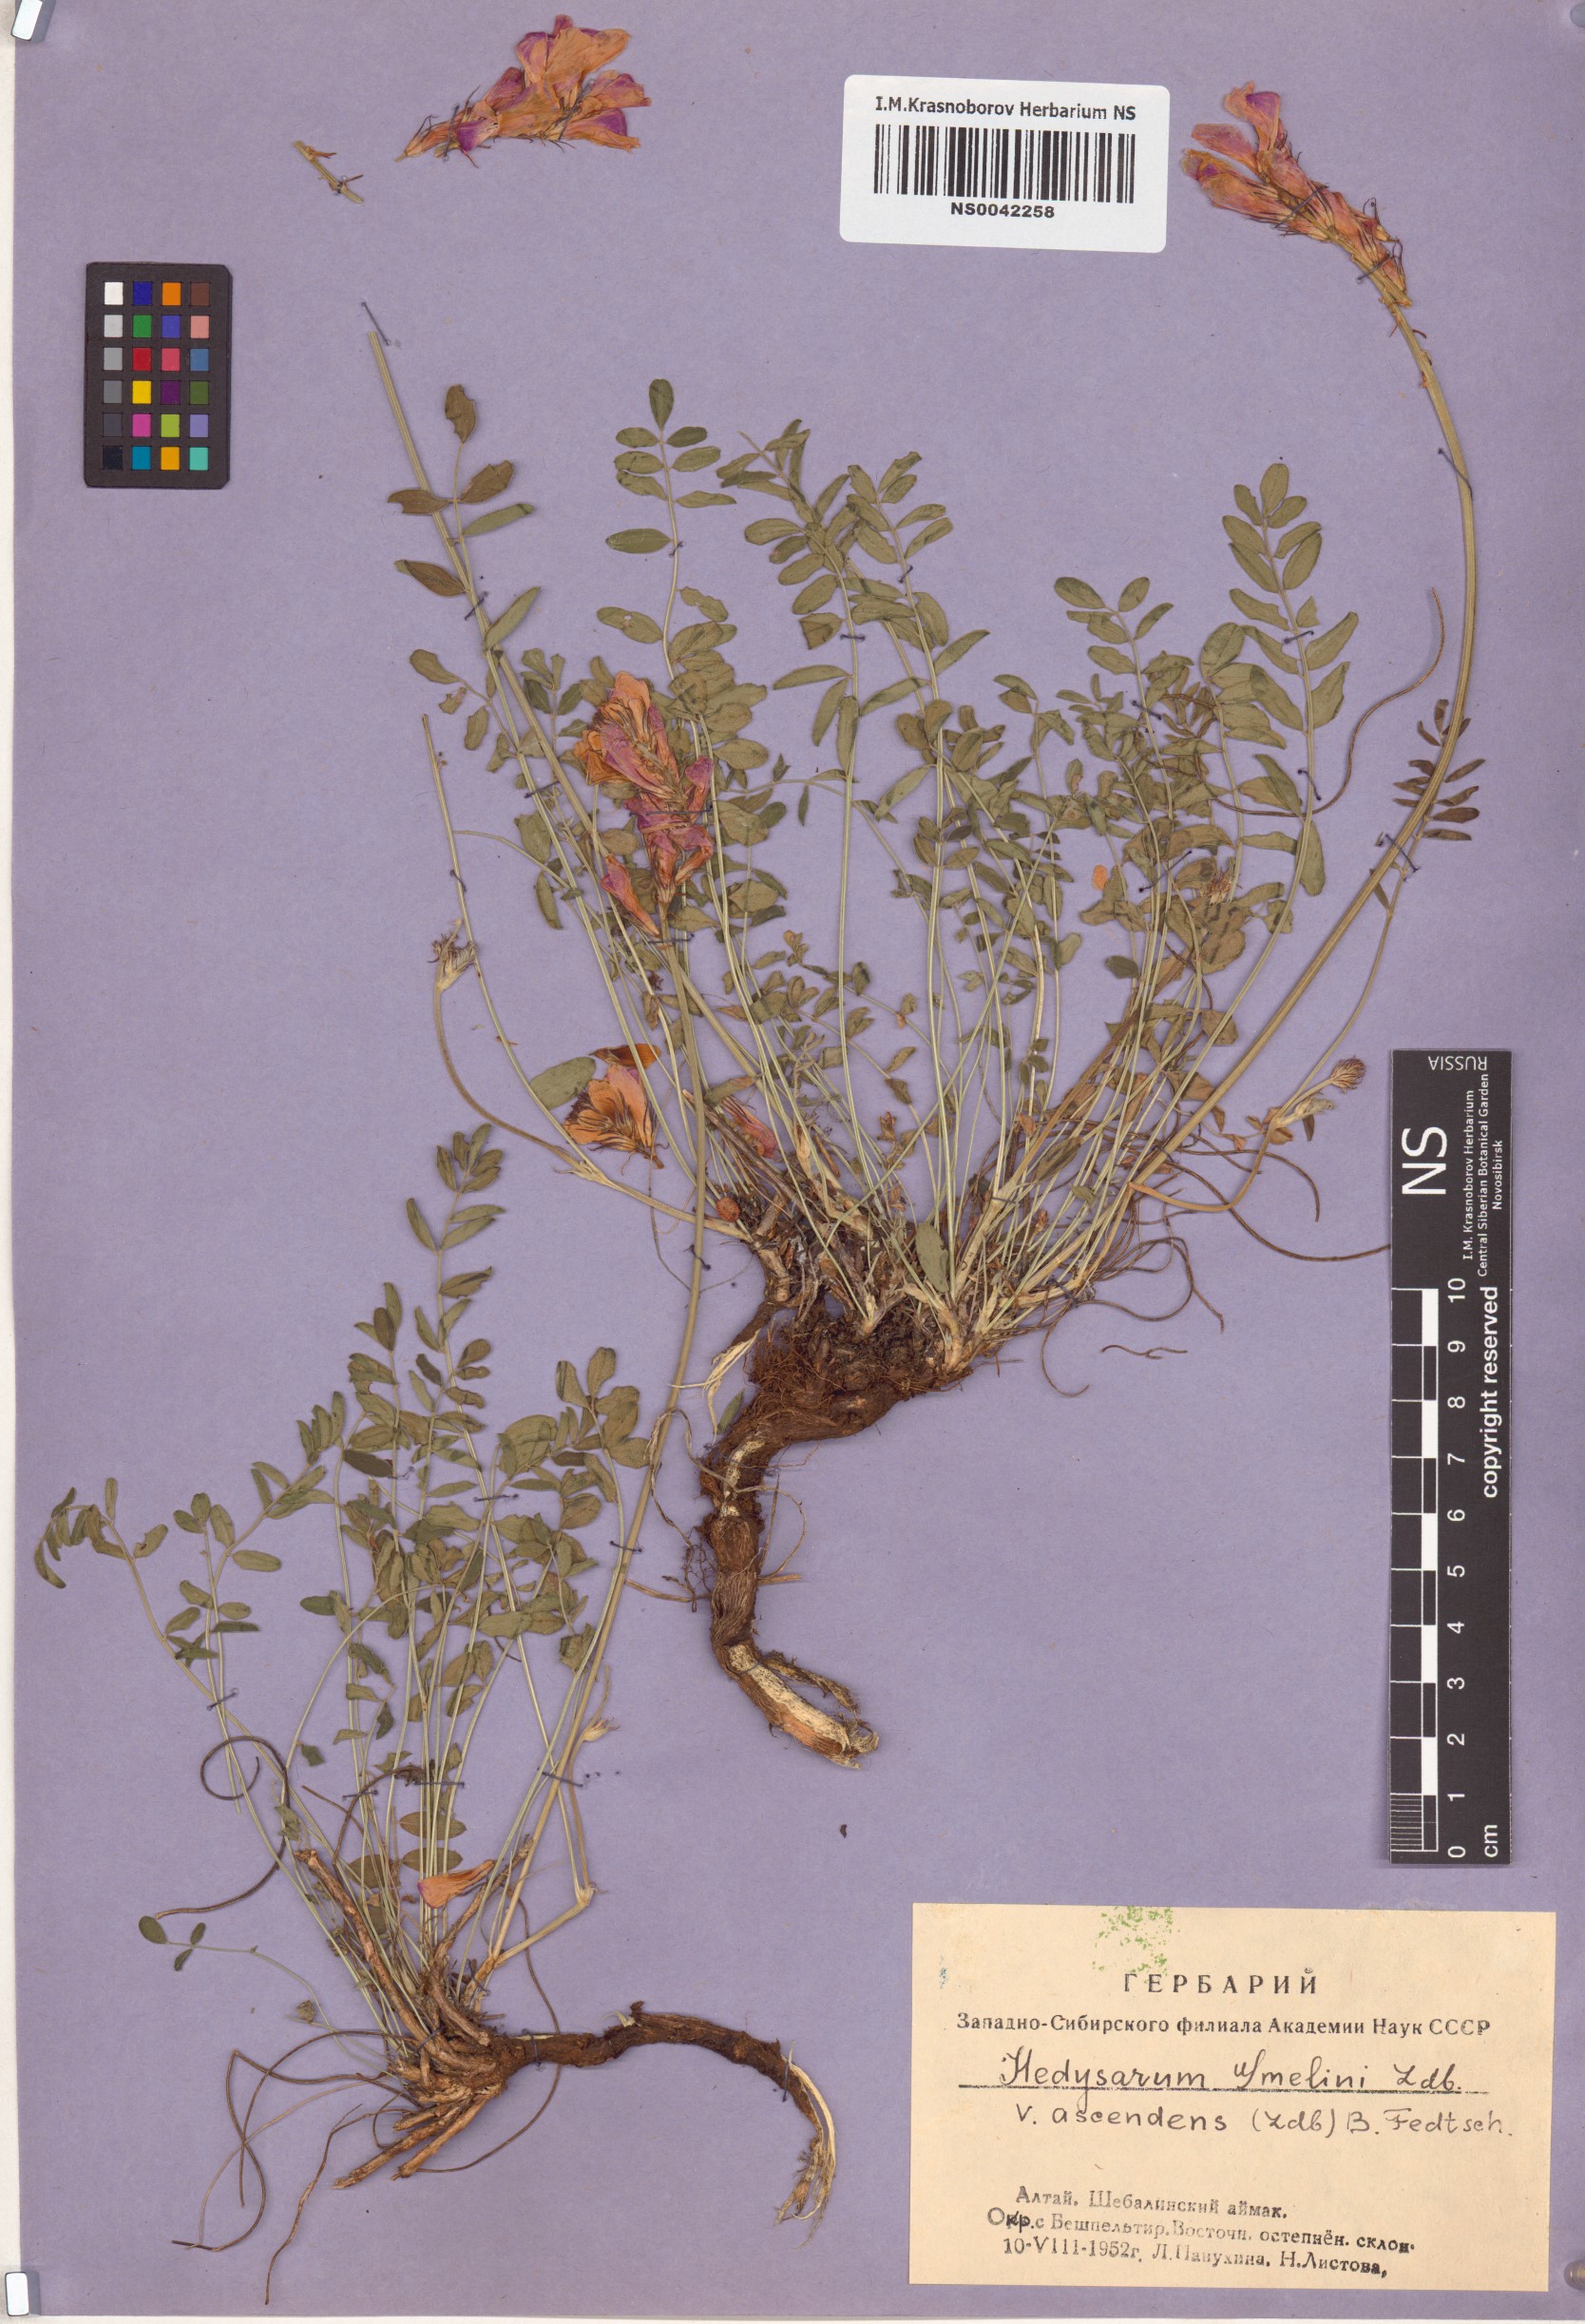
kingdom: Plantae
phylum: Tracheophyta
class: Magnoliopsida
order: Fabales
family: Fabaceae
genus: Hedysarum
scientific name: Hedysarum gmelinii
